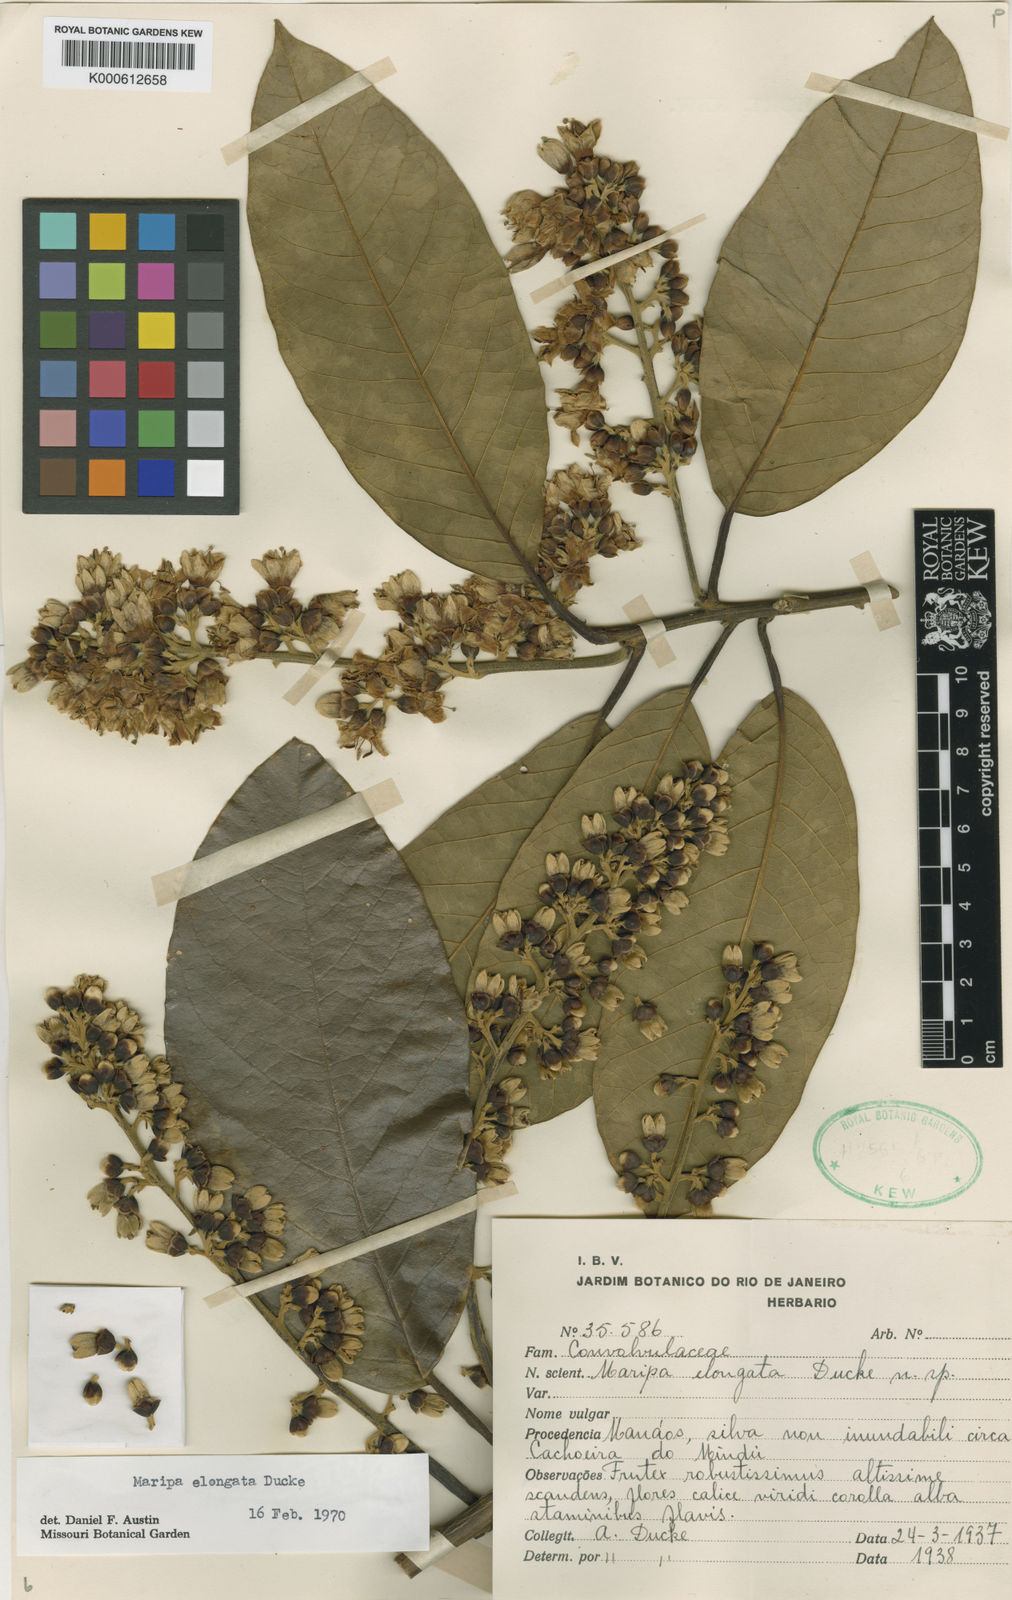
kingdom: Plantae
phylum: Tracheophyta
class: Magnoliopsida
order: Solanales
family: Convolvulaceae
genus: Maripa
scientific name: Maripa elongata
